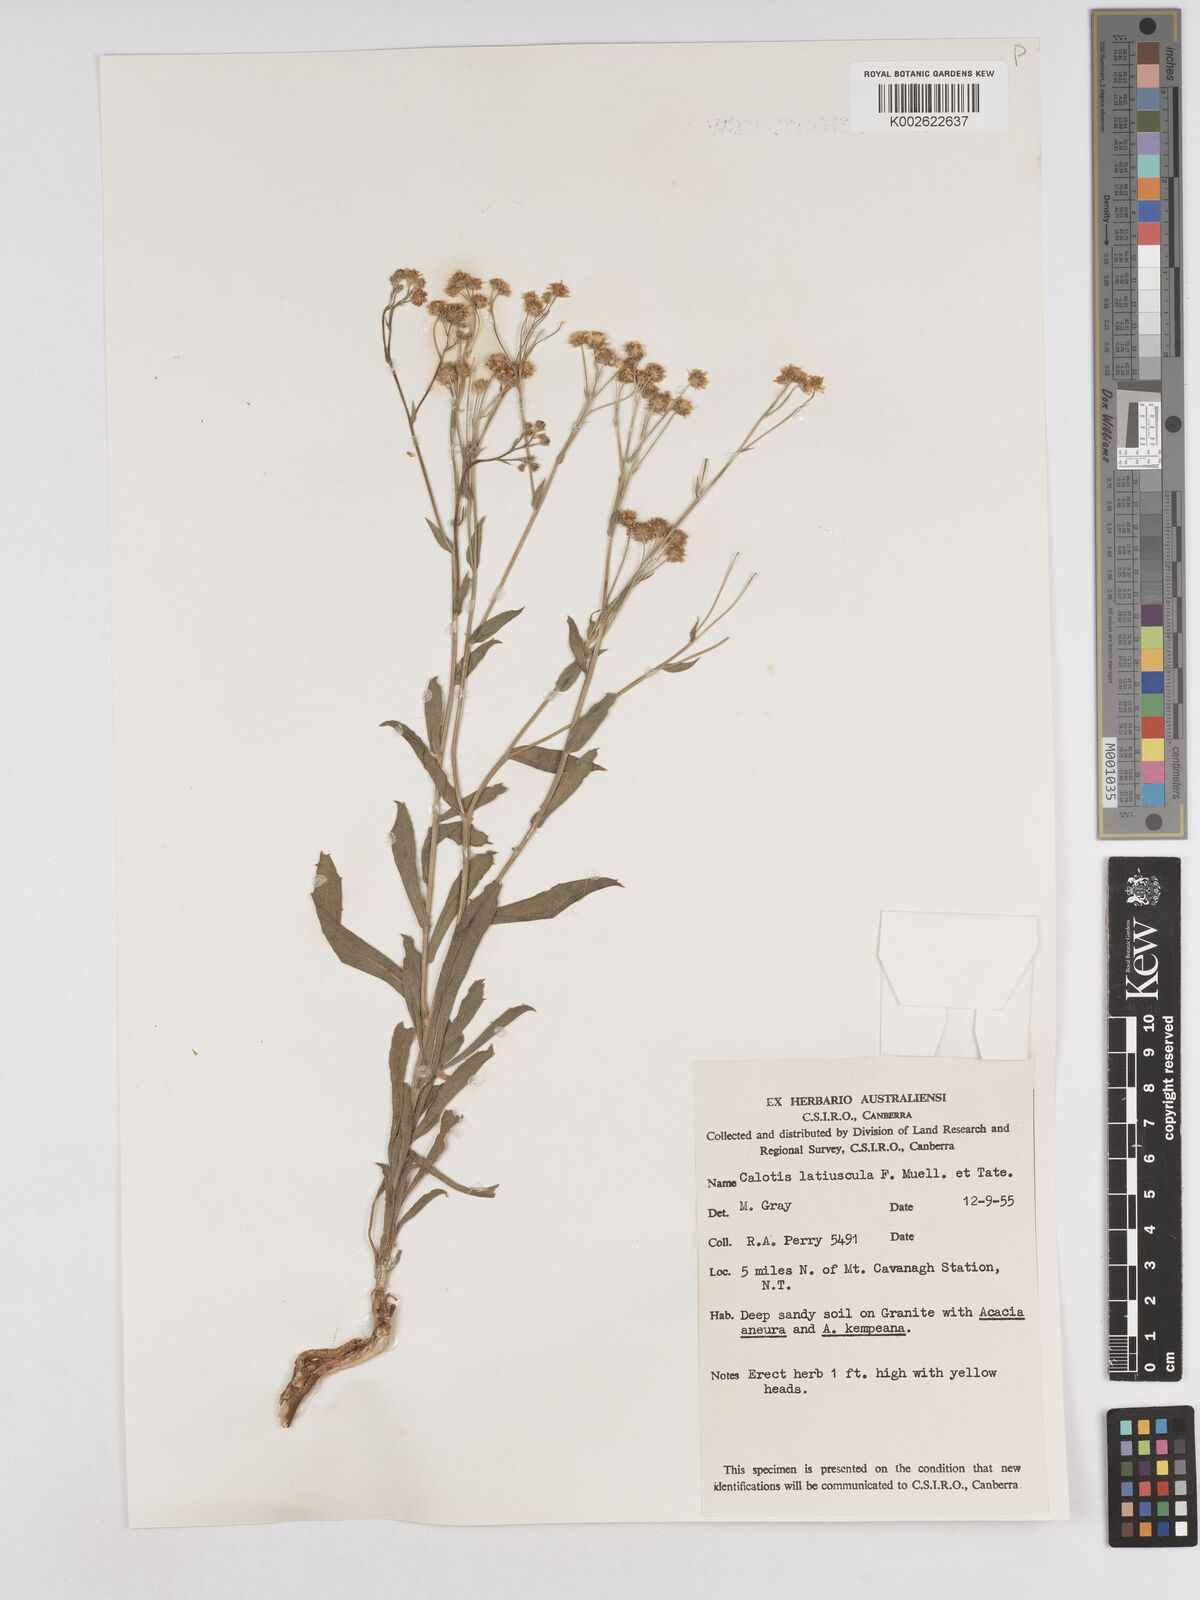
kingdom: Plantae
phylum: Tracheophyta
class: Magnoliopsida
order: Asterales
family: Asteraceae
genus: Calotis
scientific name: Calotis latiuscula
